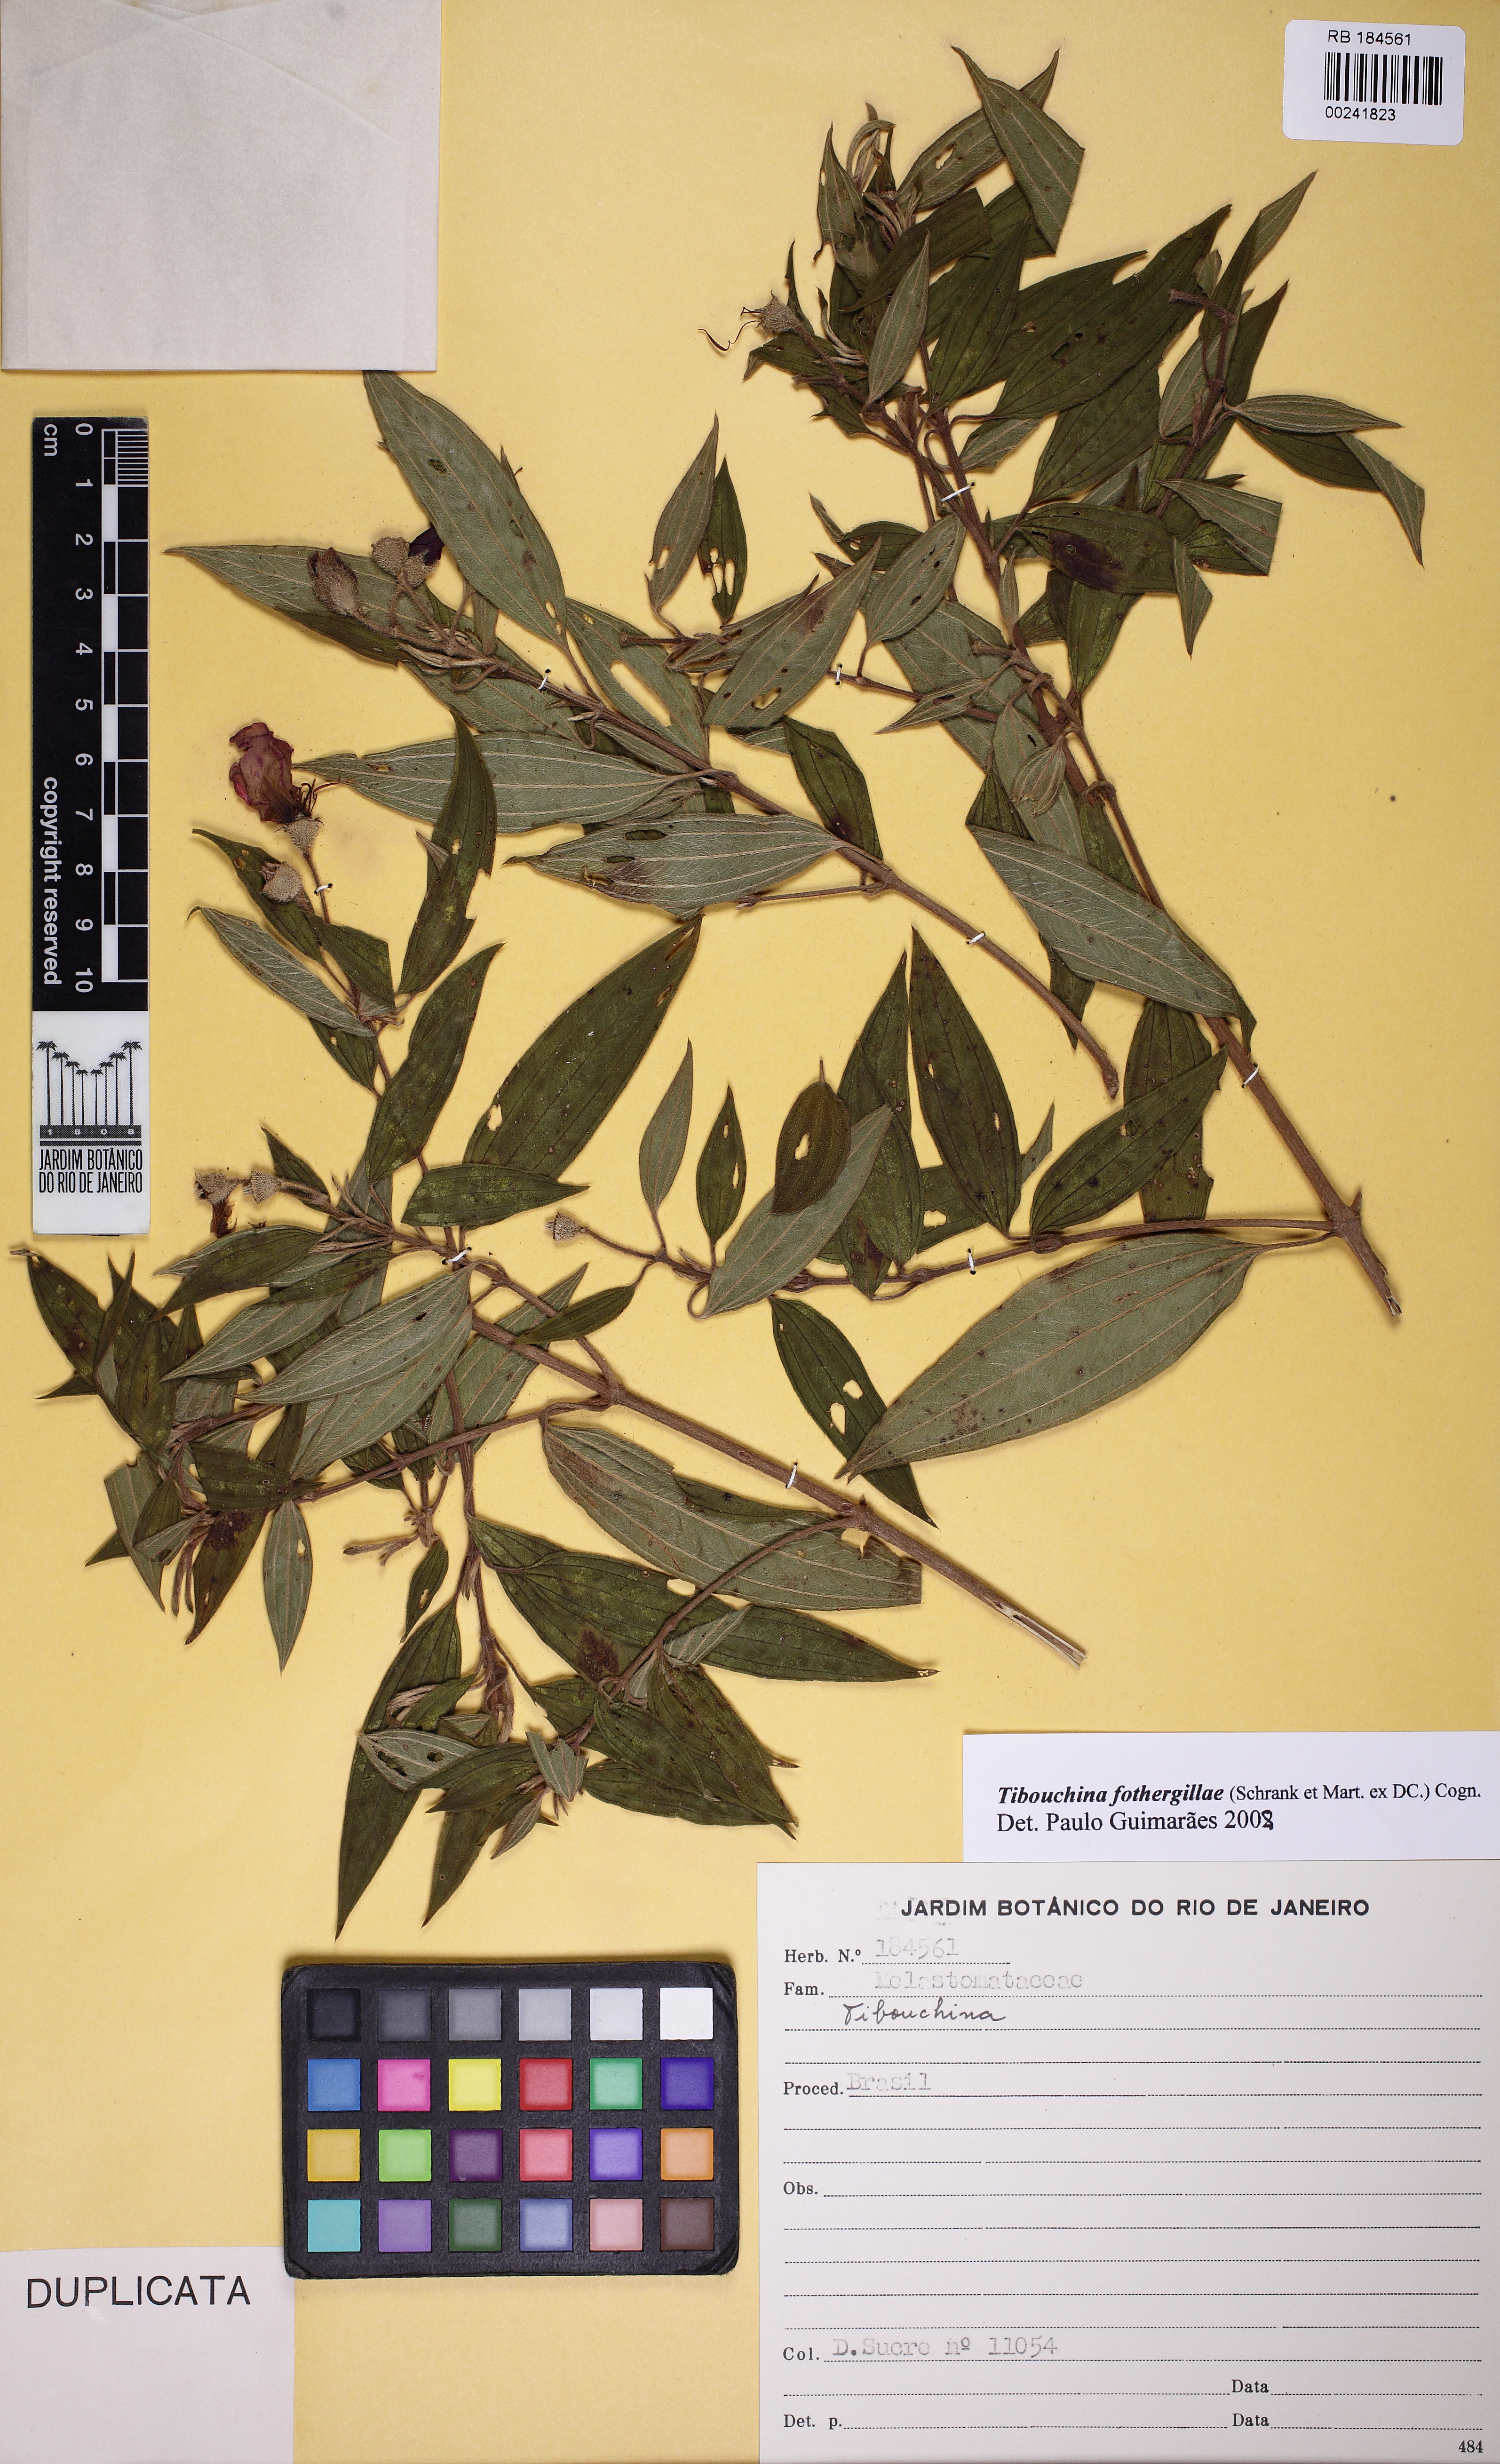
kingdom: Plantae
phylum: Tracheophyta
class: Magnoliopsida
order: Myrtales
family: Melastomataceae
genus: Pleroma
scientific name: Pleroma fothergillae
